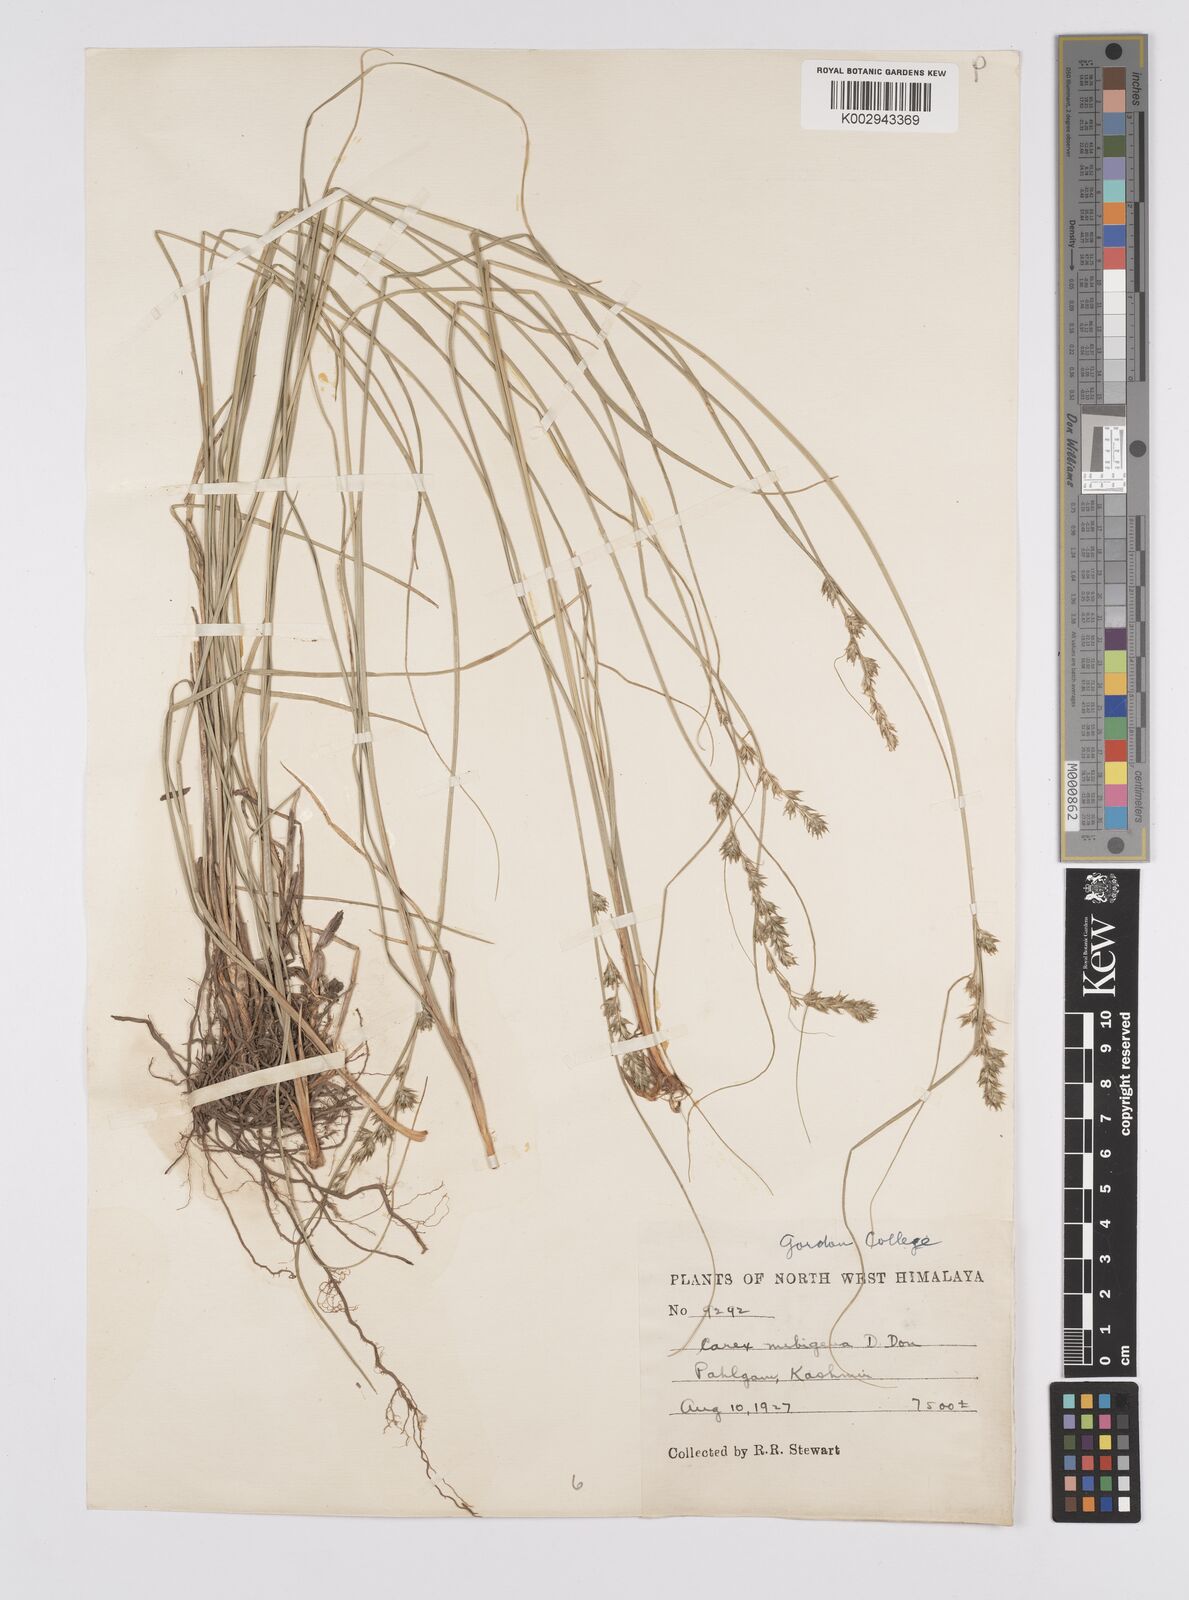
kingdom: Plantae
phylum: Tracheophyta
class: Liliopsida
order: Poales
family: Cyperaceae
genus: Carex
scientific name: Carex nubigena
